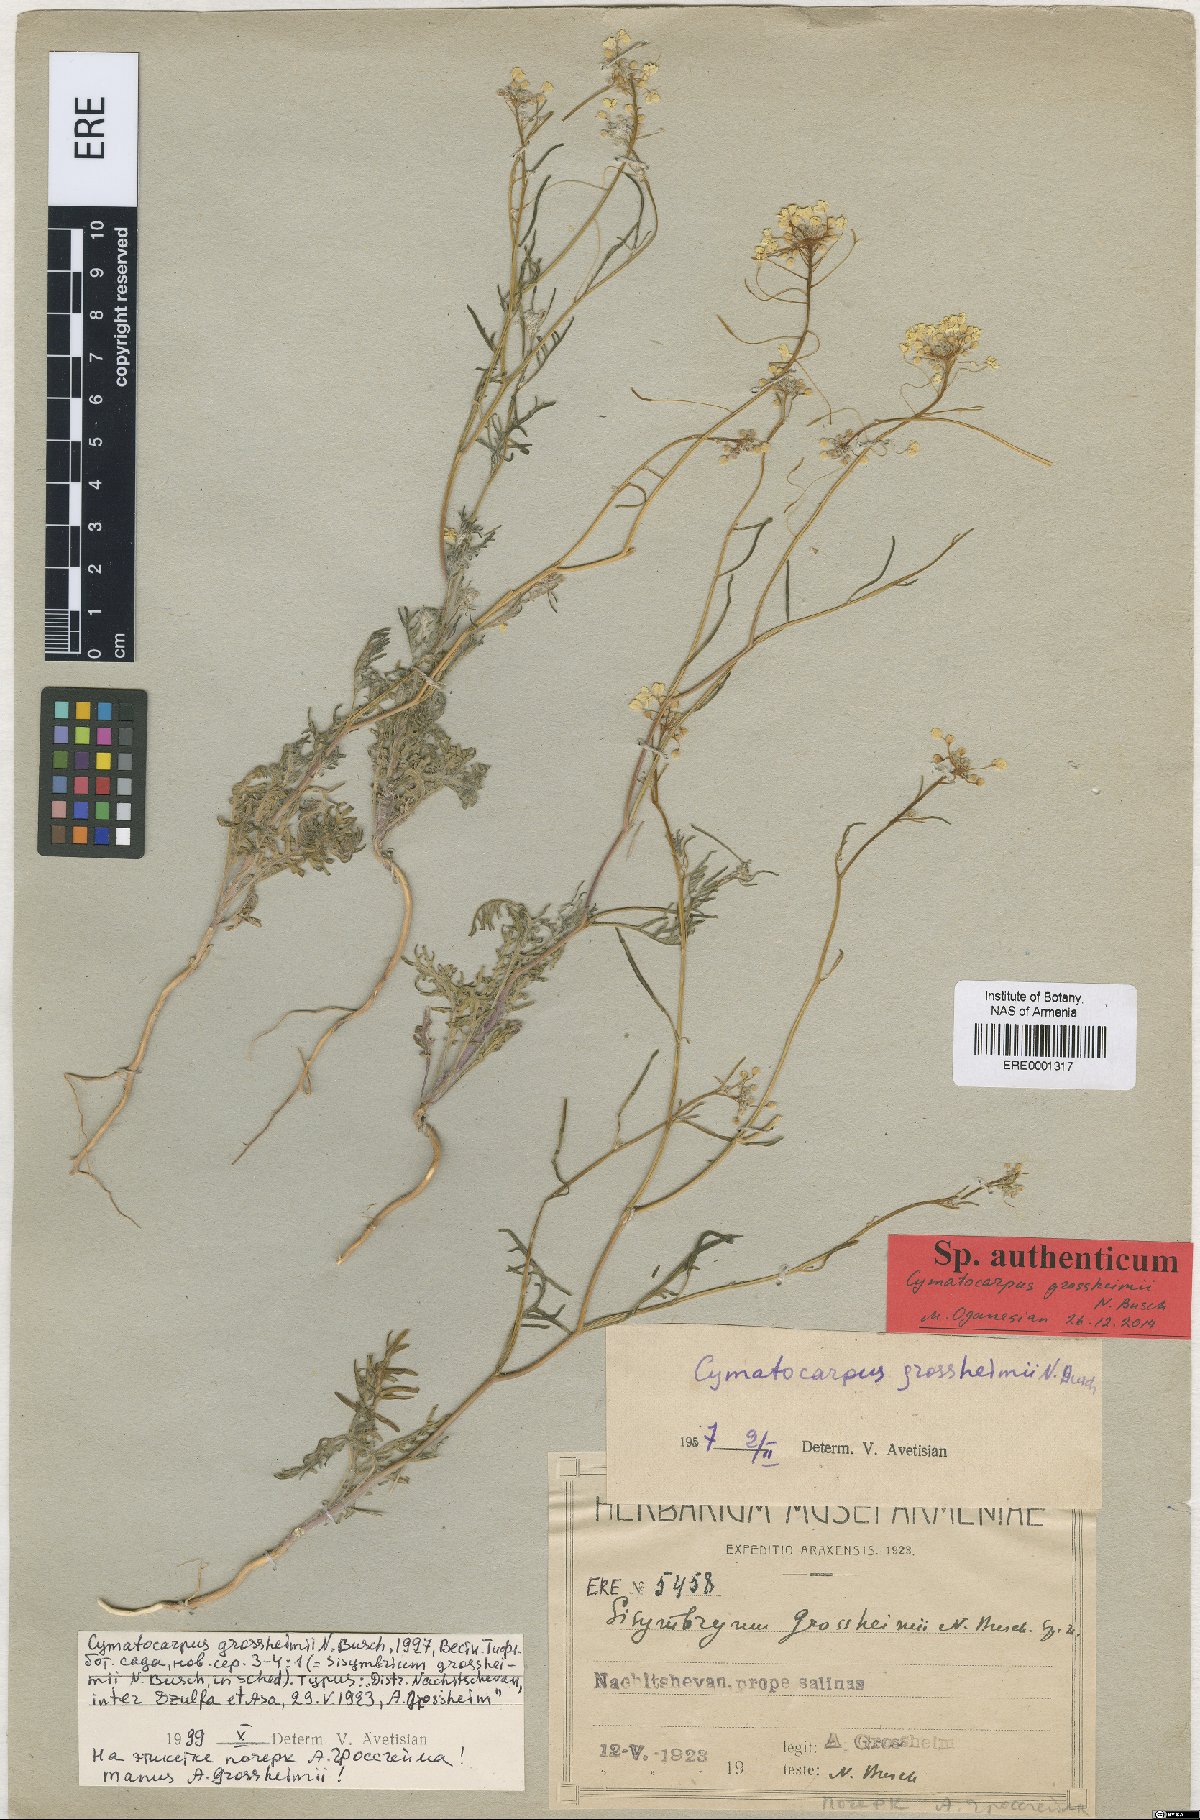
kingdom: Plantae
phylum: Tracheophyta
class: Magnoliopsida
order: Brassicales
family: Brassicaceae
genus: Cymatocarpus
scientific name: Cymatocarpus grossheimi
